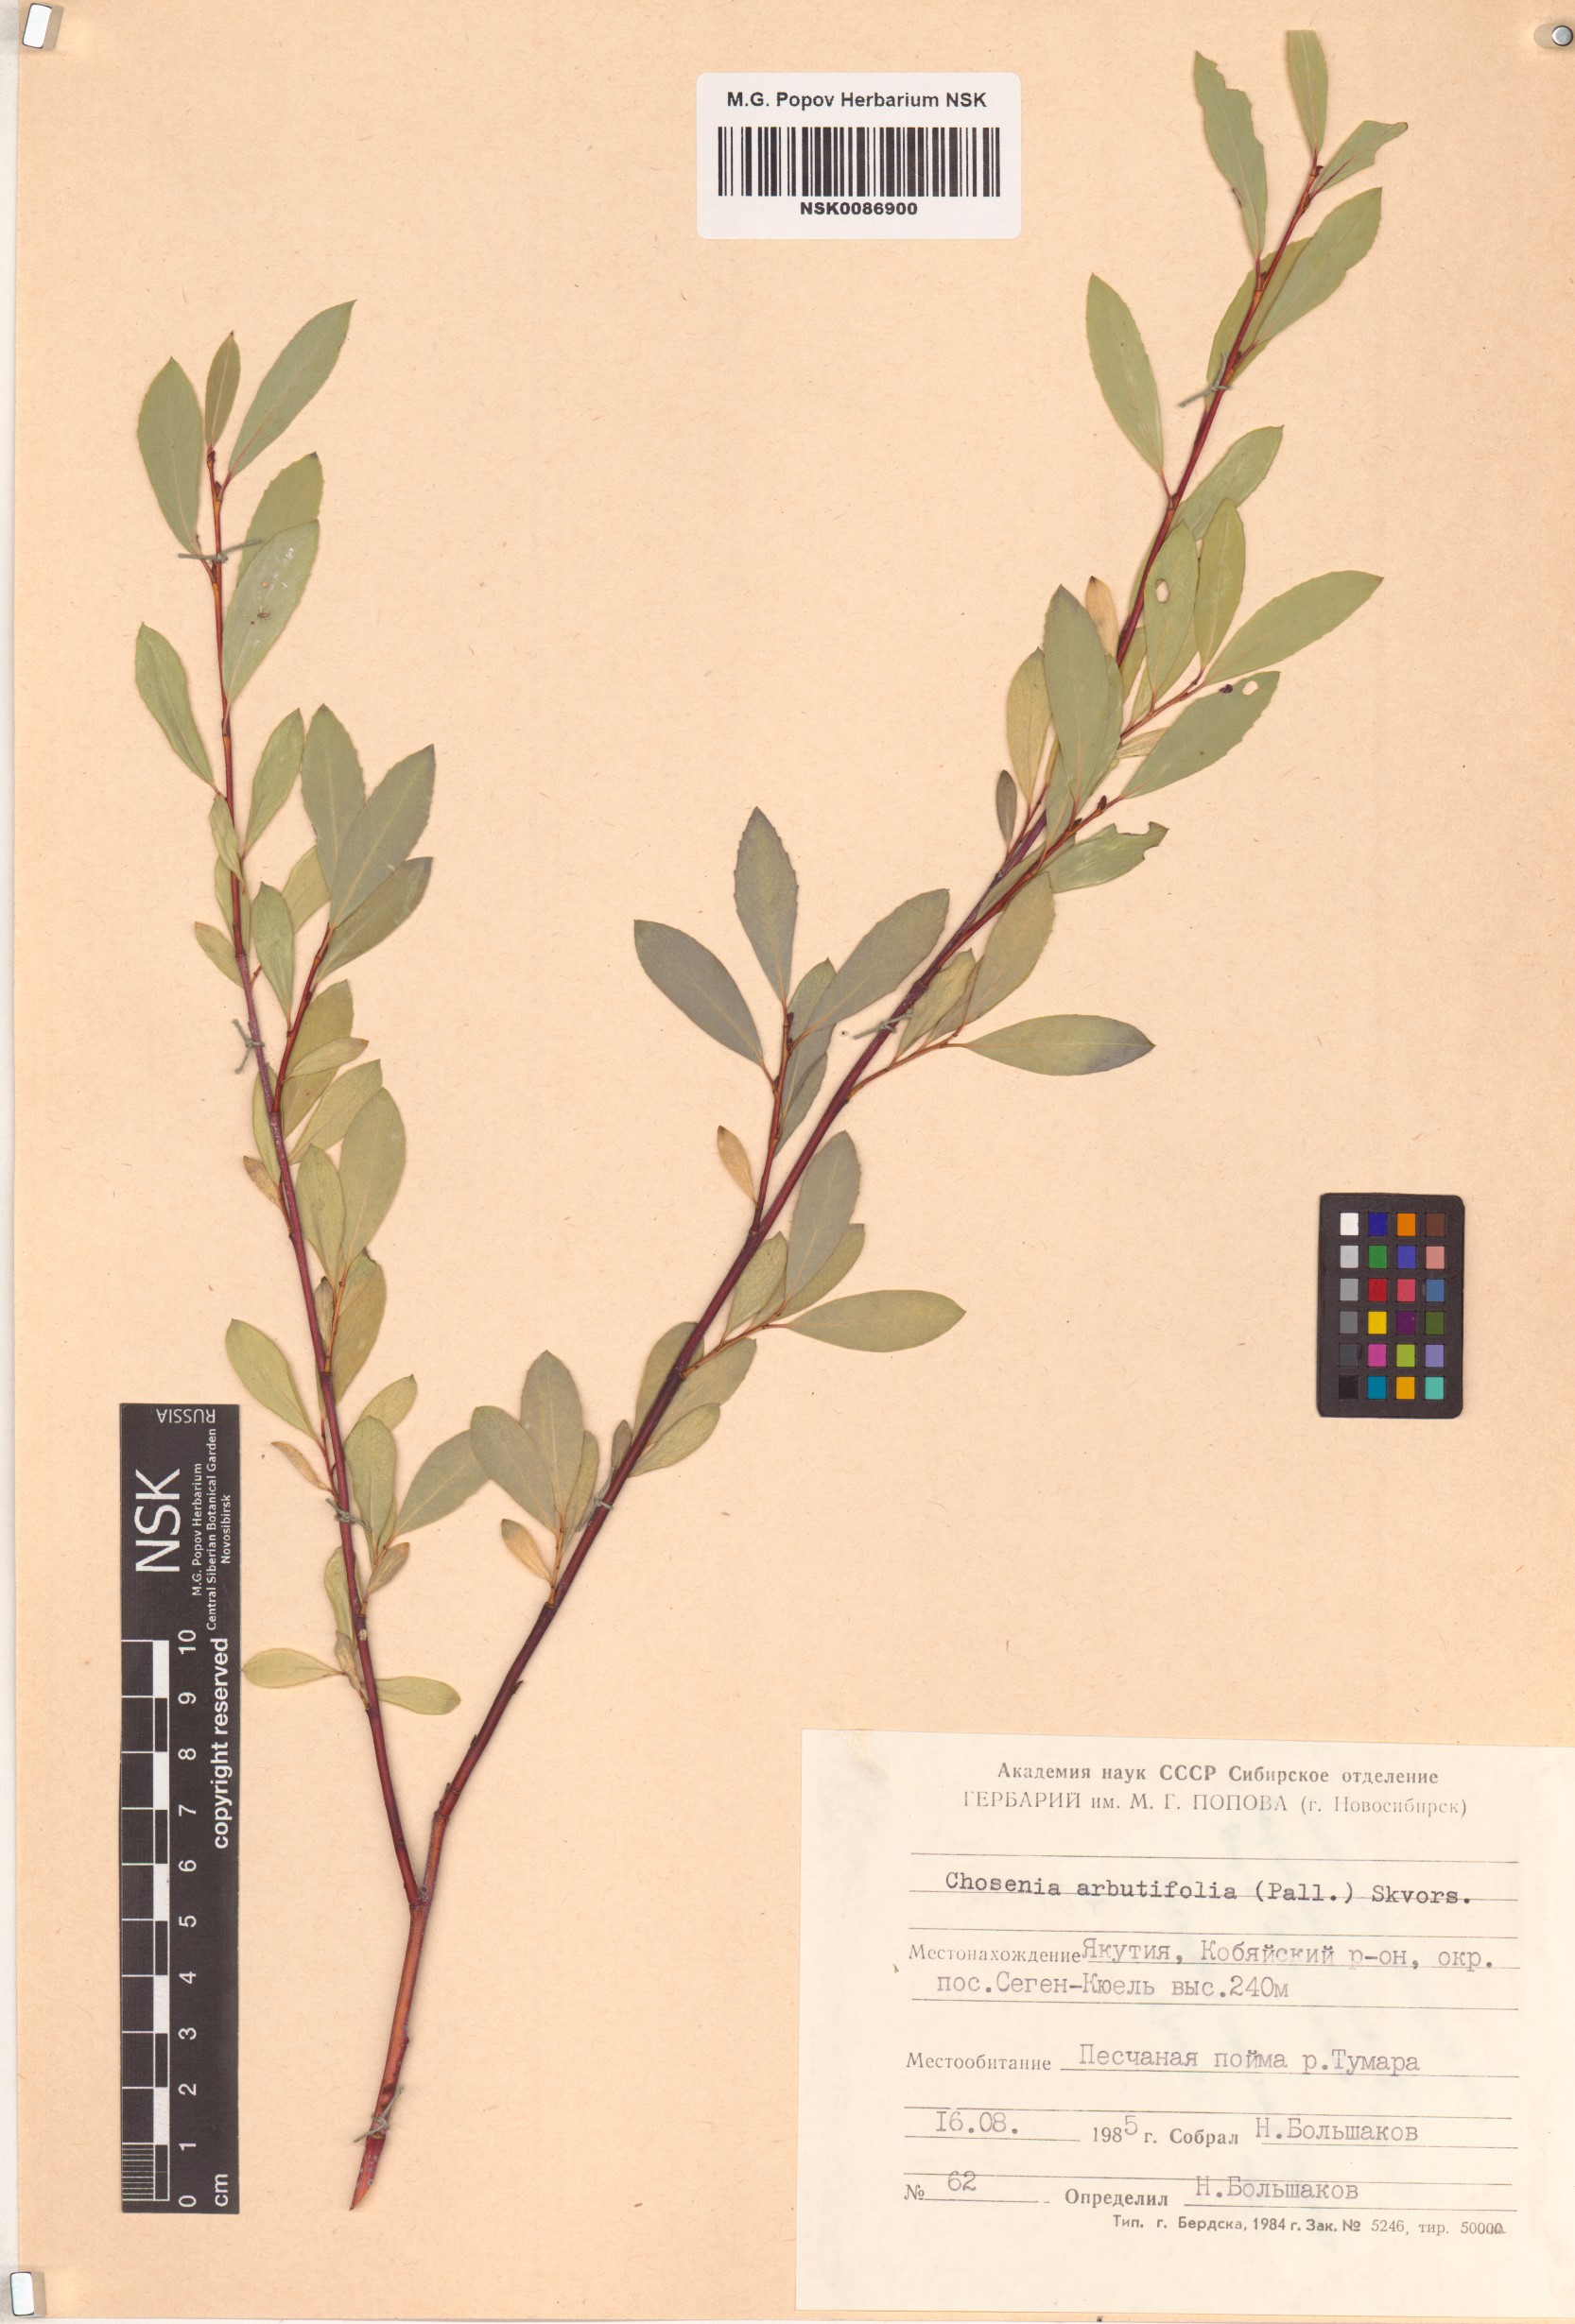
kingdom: Plantae
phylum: Tracheophyta
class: Magnoliopsida
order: Malpighiales
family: Salicaceae
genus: Chosenia
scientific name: Chosenia arbutifolia
